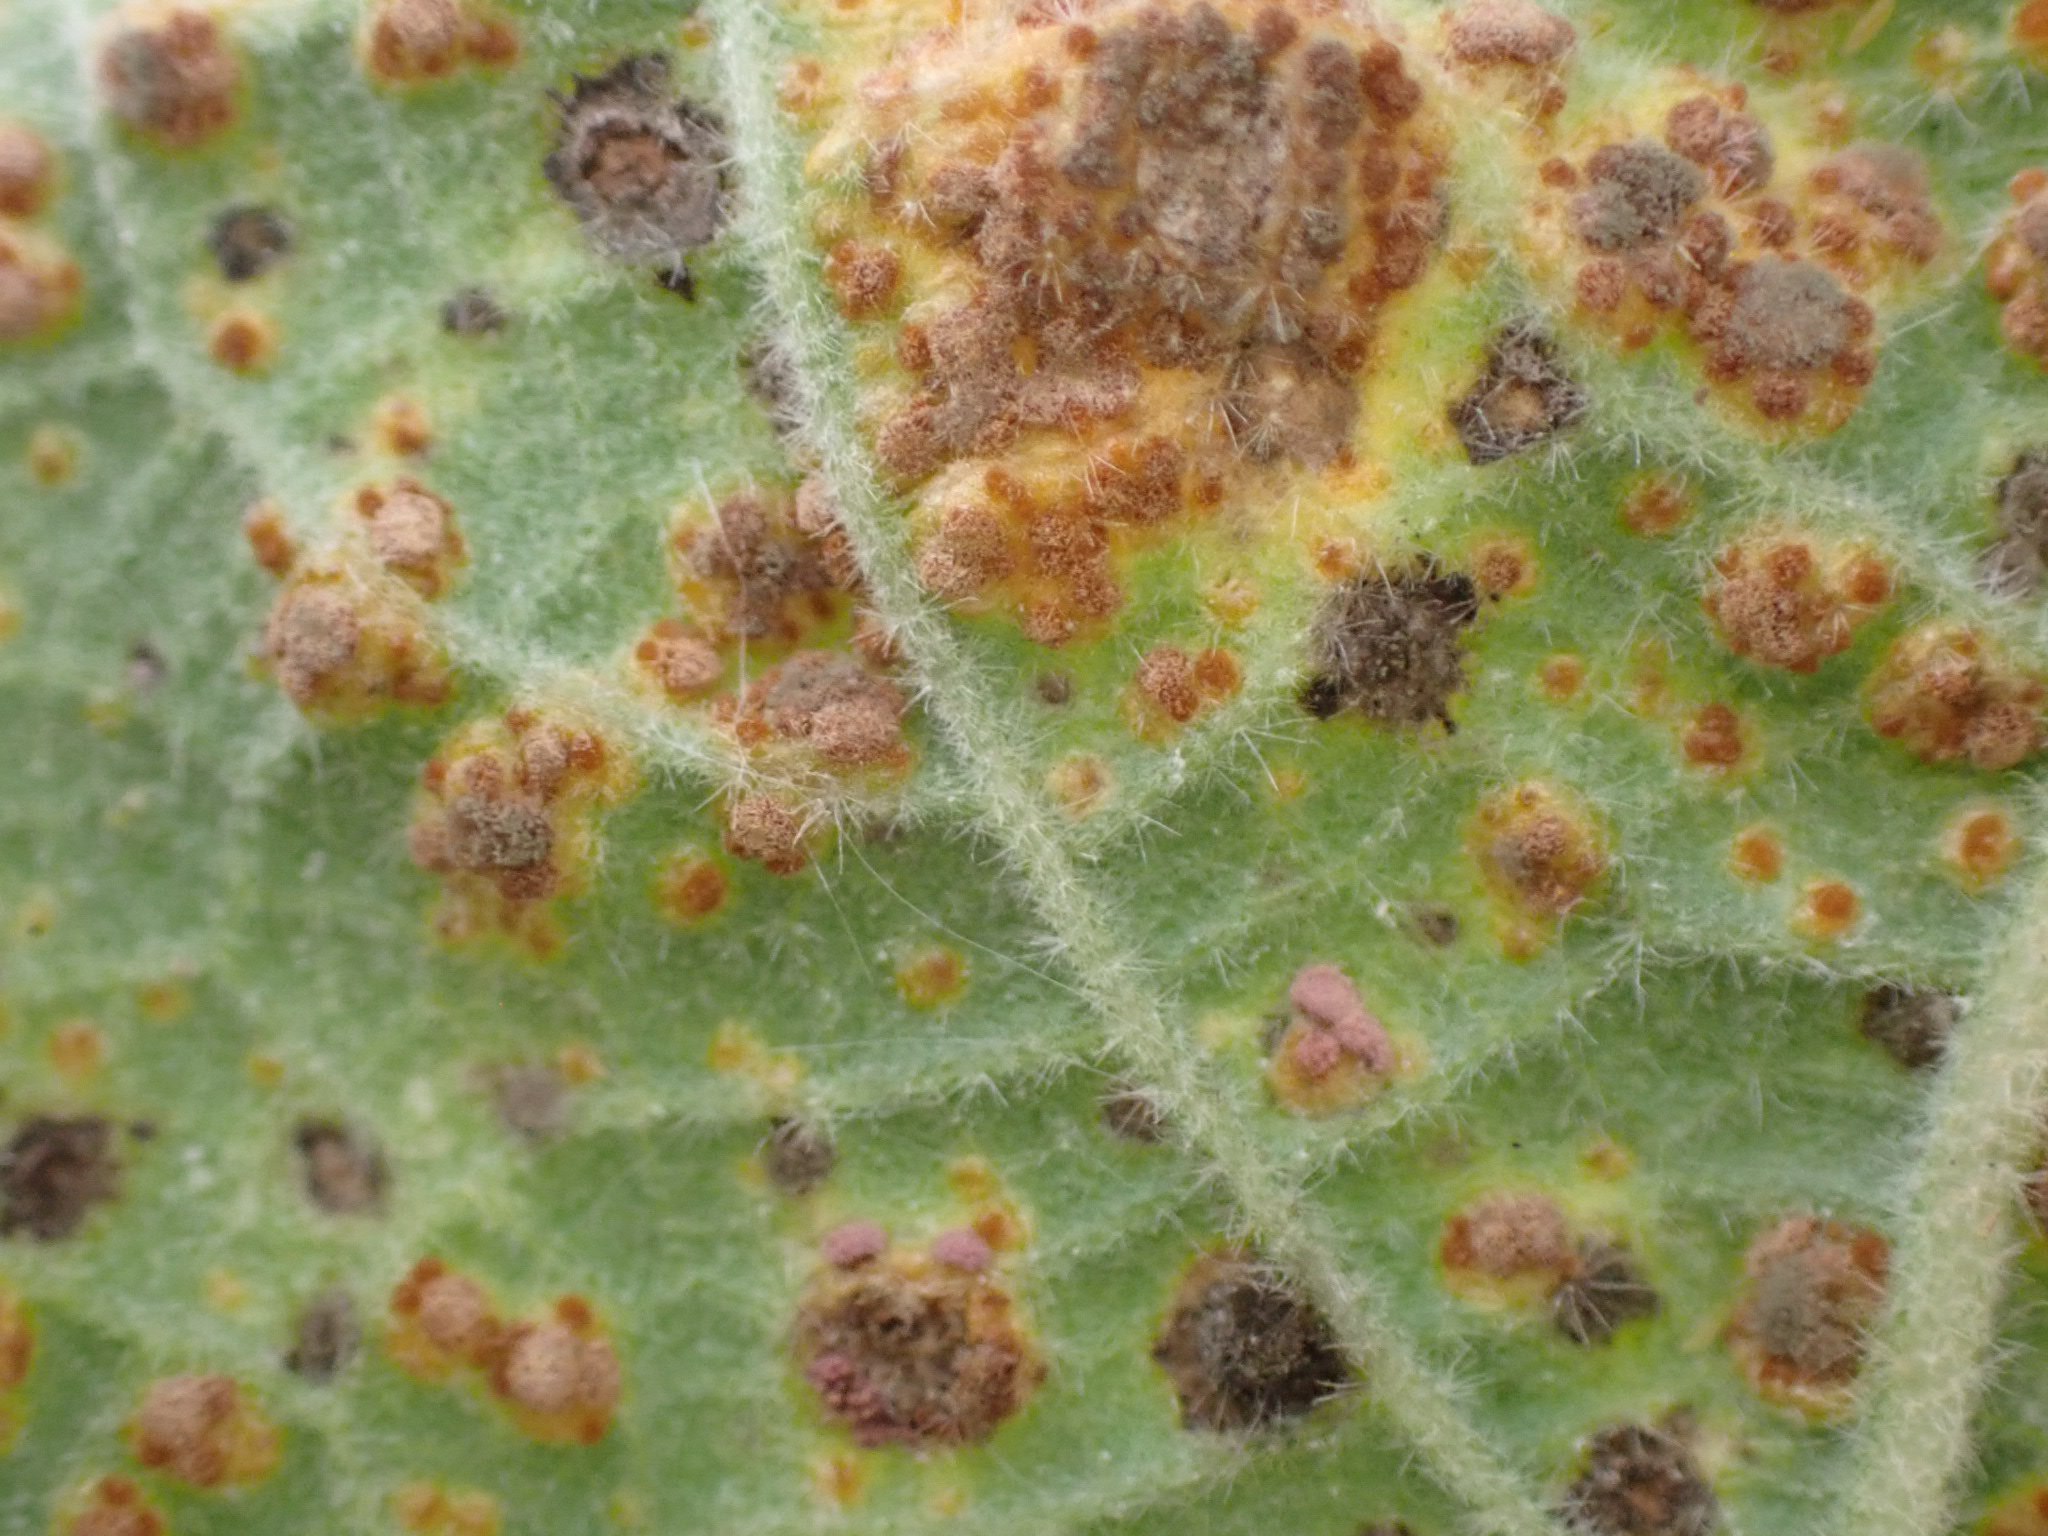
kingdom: Fungi
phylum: Basidiomycota
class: Pucciniomycetes
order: Pucciniales
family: Pucciniaceae
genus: Puccinia
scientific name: Puccinia malvacearum
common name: stokrose-tvecellerust
